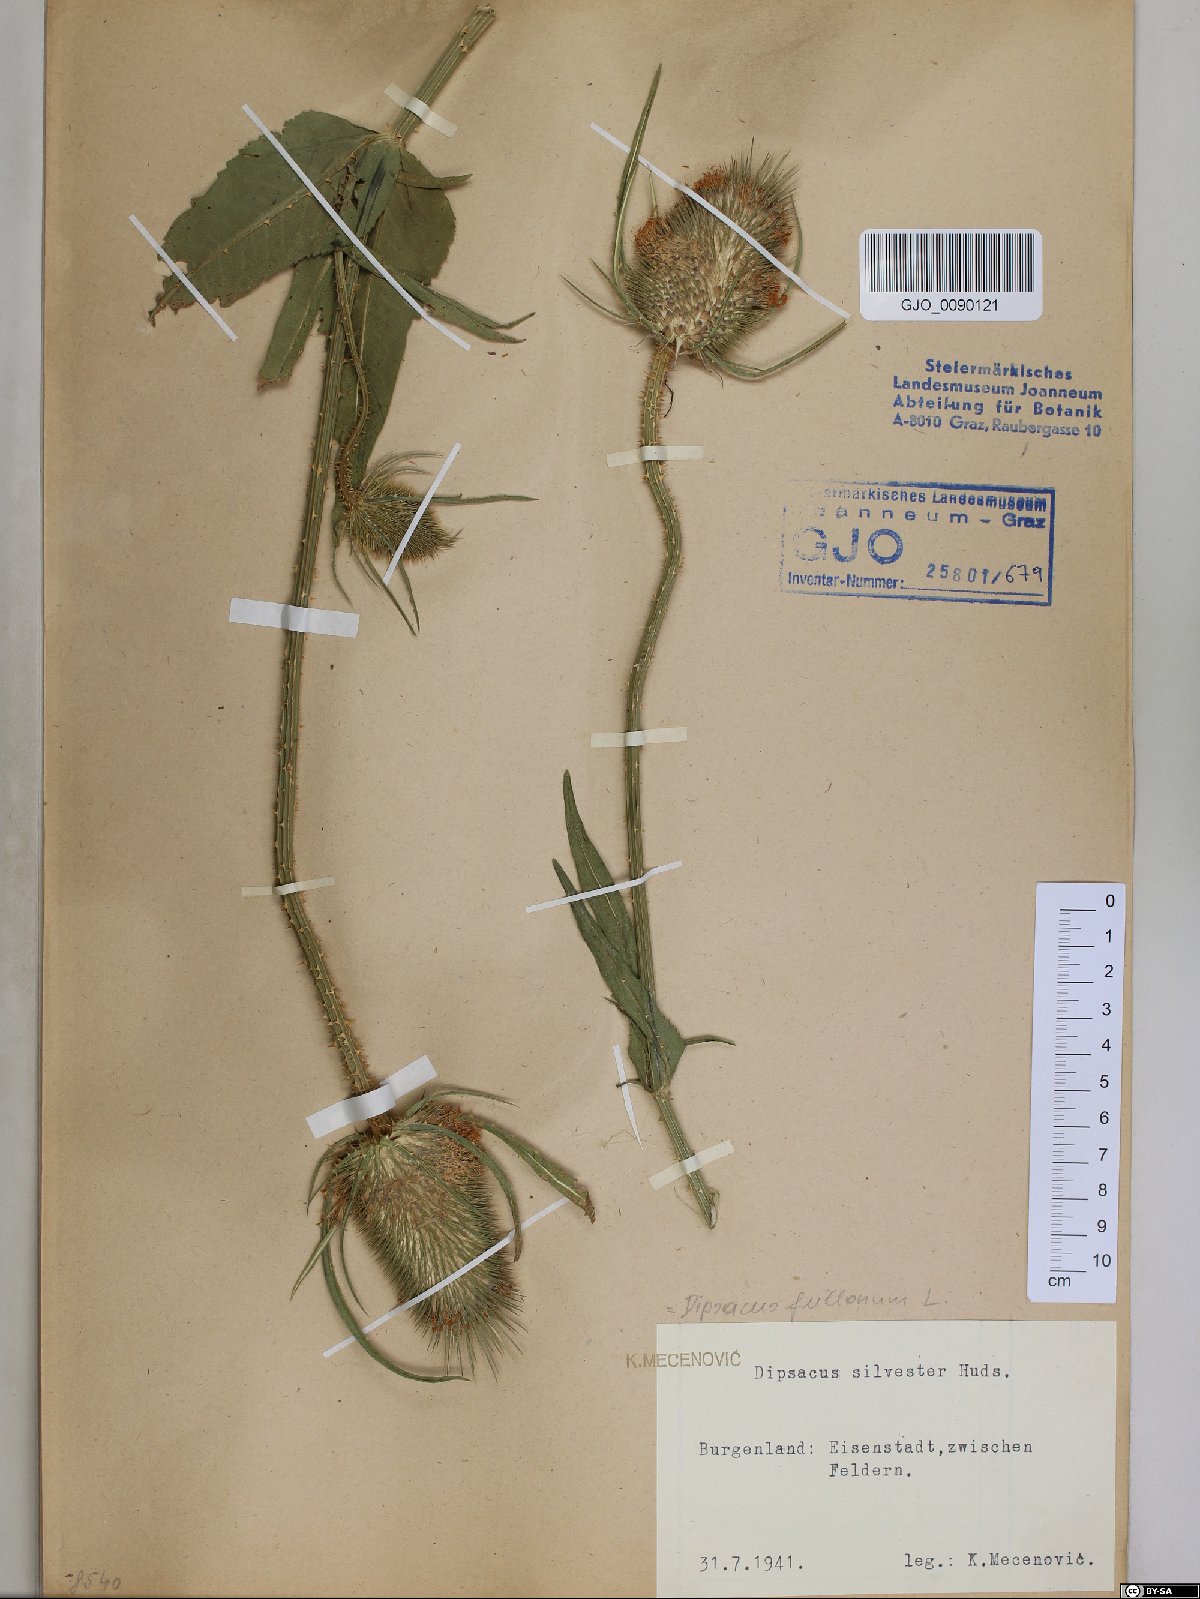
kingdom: Plantae
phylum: Tracheophyta
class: Magnoliopsida
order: Dipsacales
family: Caprifoliaceae
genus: Dipsacus
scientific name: Dipsacus fullonum
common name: Teasel
